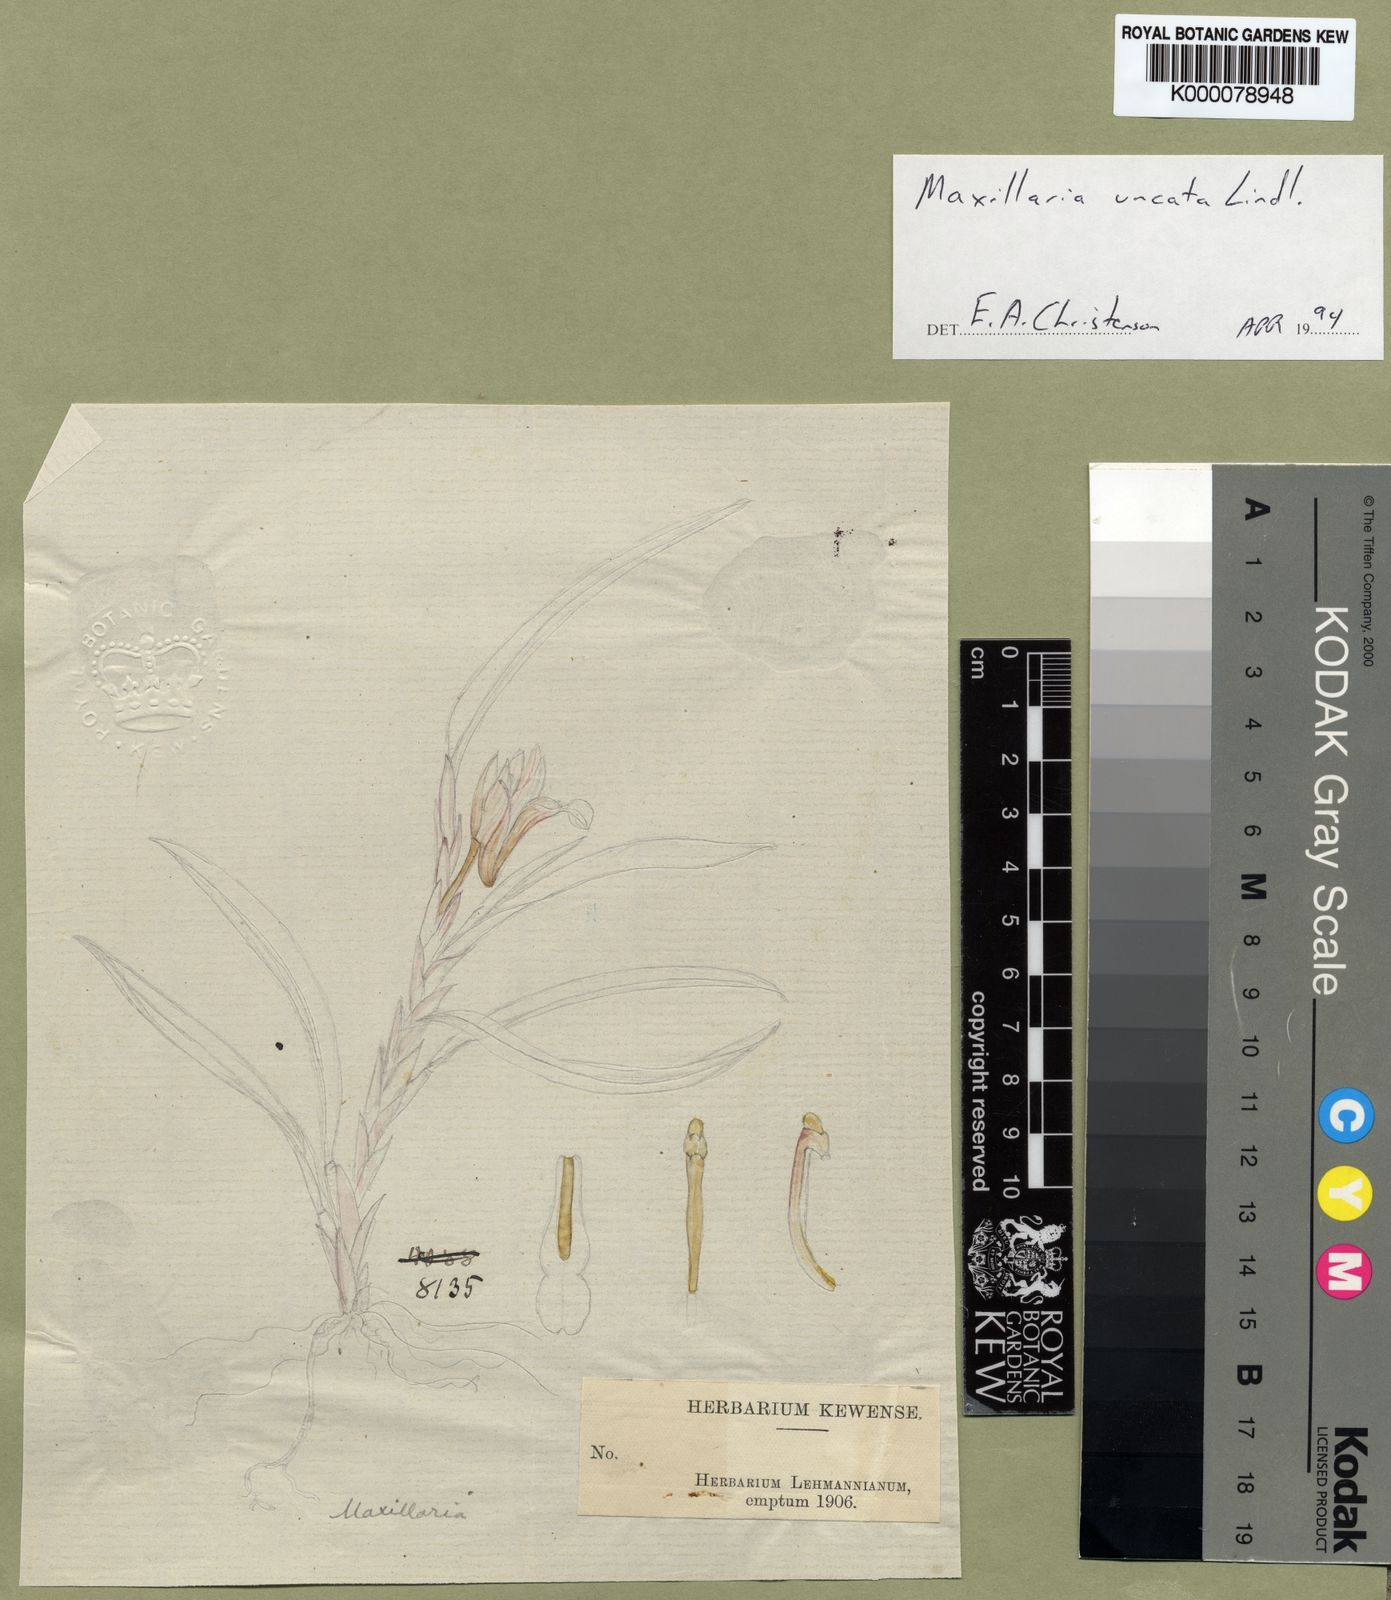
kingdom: Plantae
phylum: Tracheophyta
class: Liliopsida
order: Asparagales
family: Orchidaceae
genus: Maxillaria
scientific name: Maxillaria uncata
